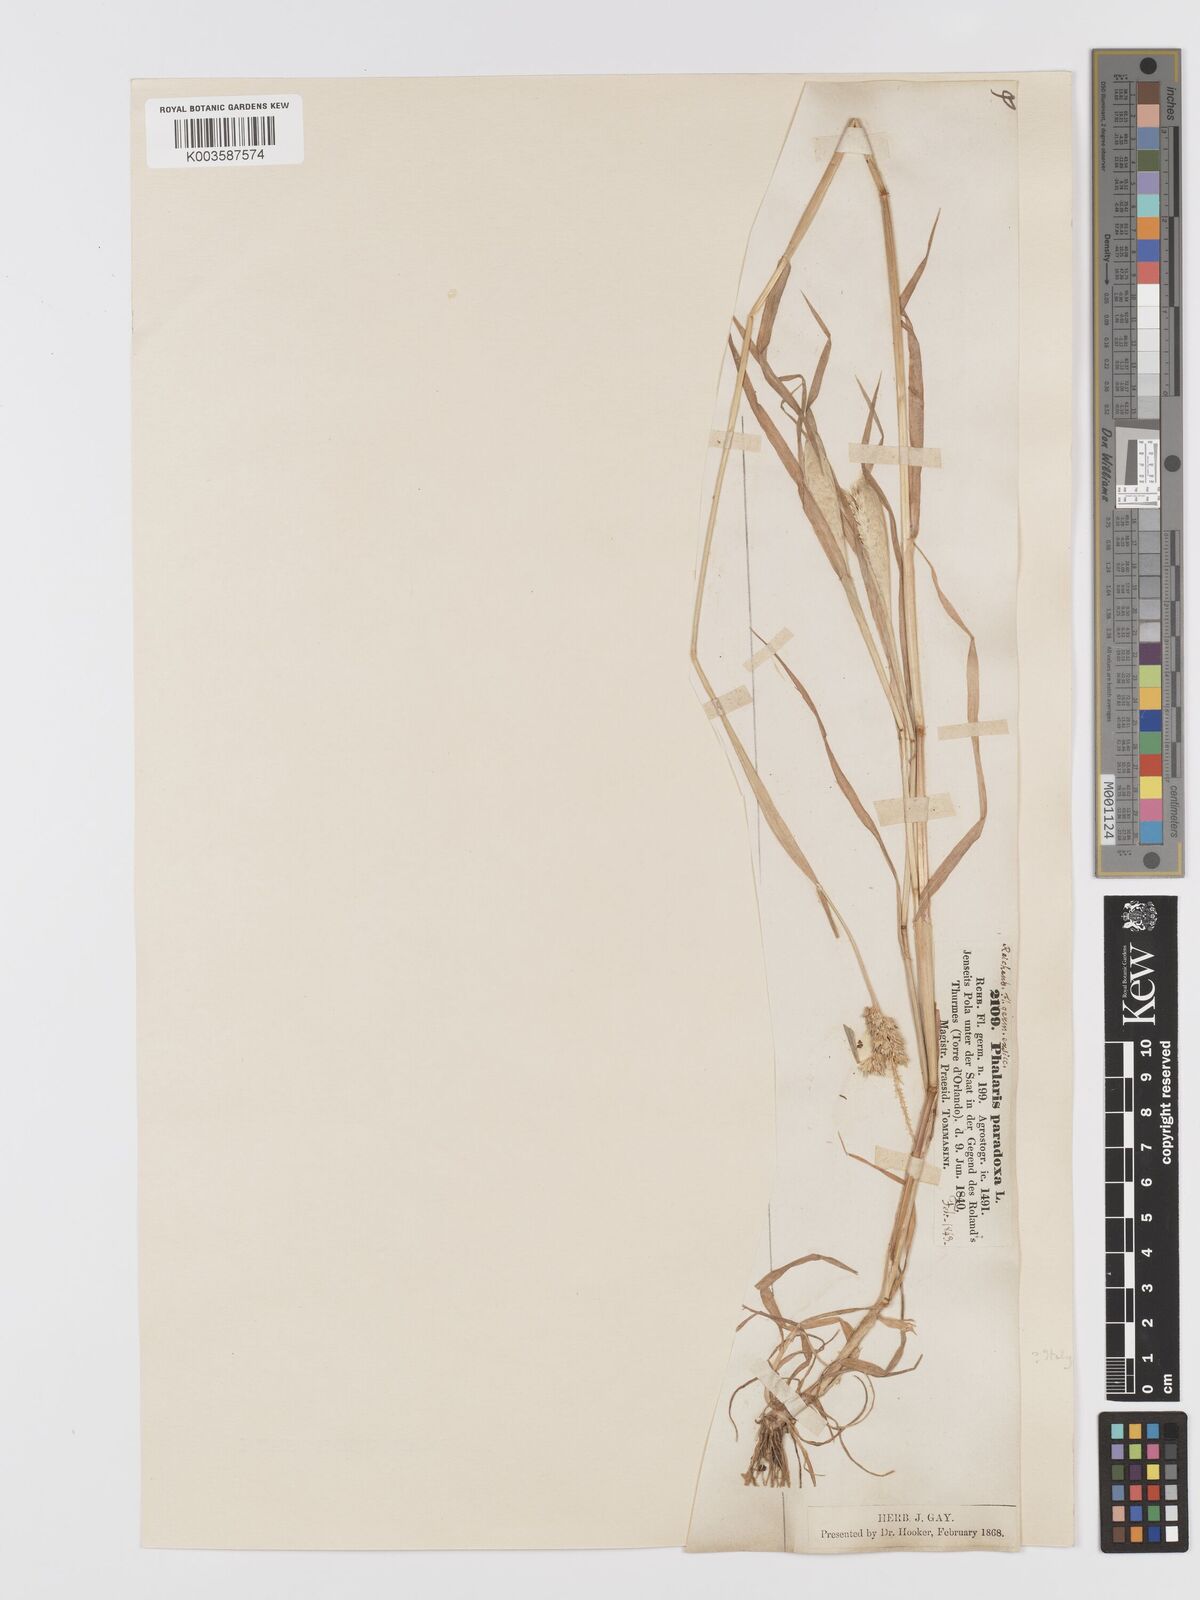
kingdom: Plantae
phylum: Tracheophyta
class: Liliopsida
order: Poales
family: Poaceae
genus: Phalaris
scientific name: Phalaris paradoxa
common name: Awned canary-grass
